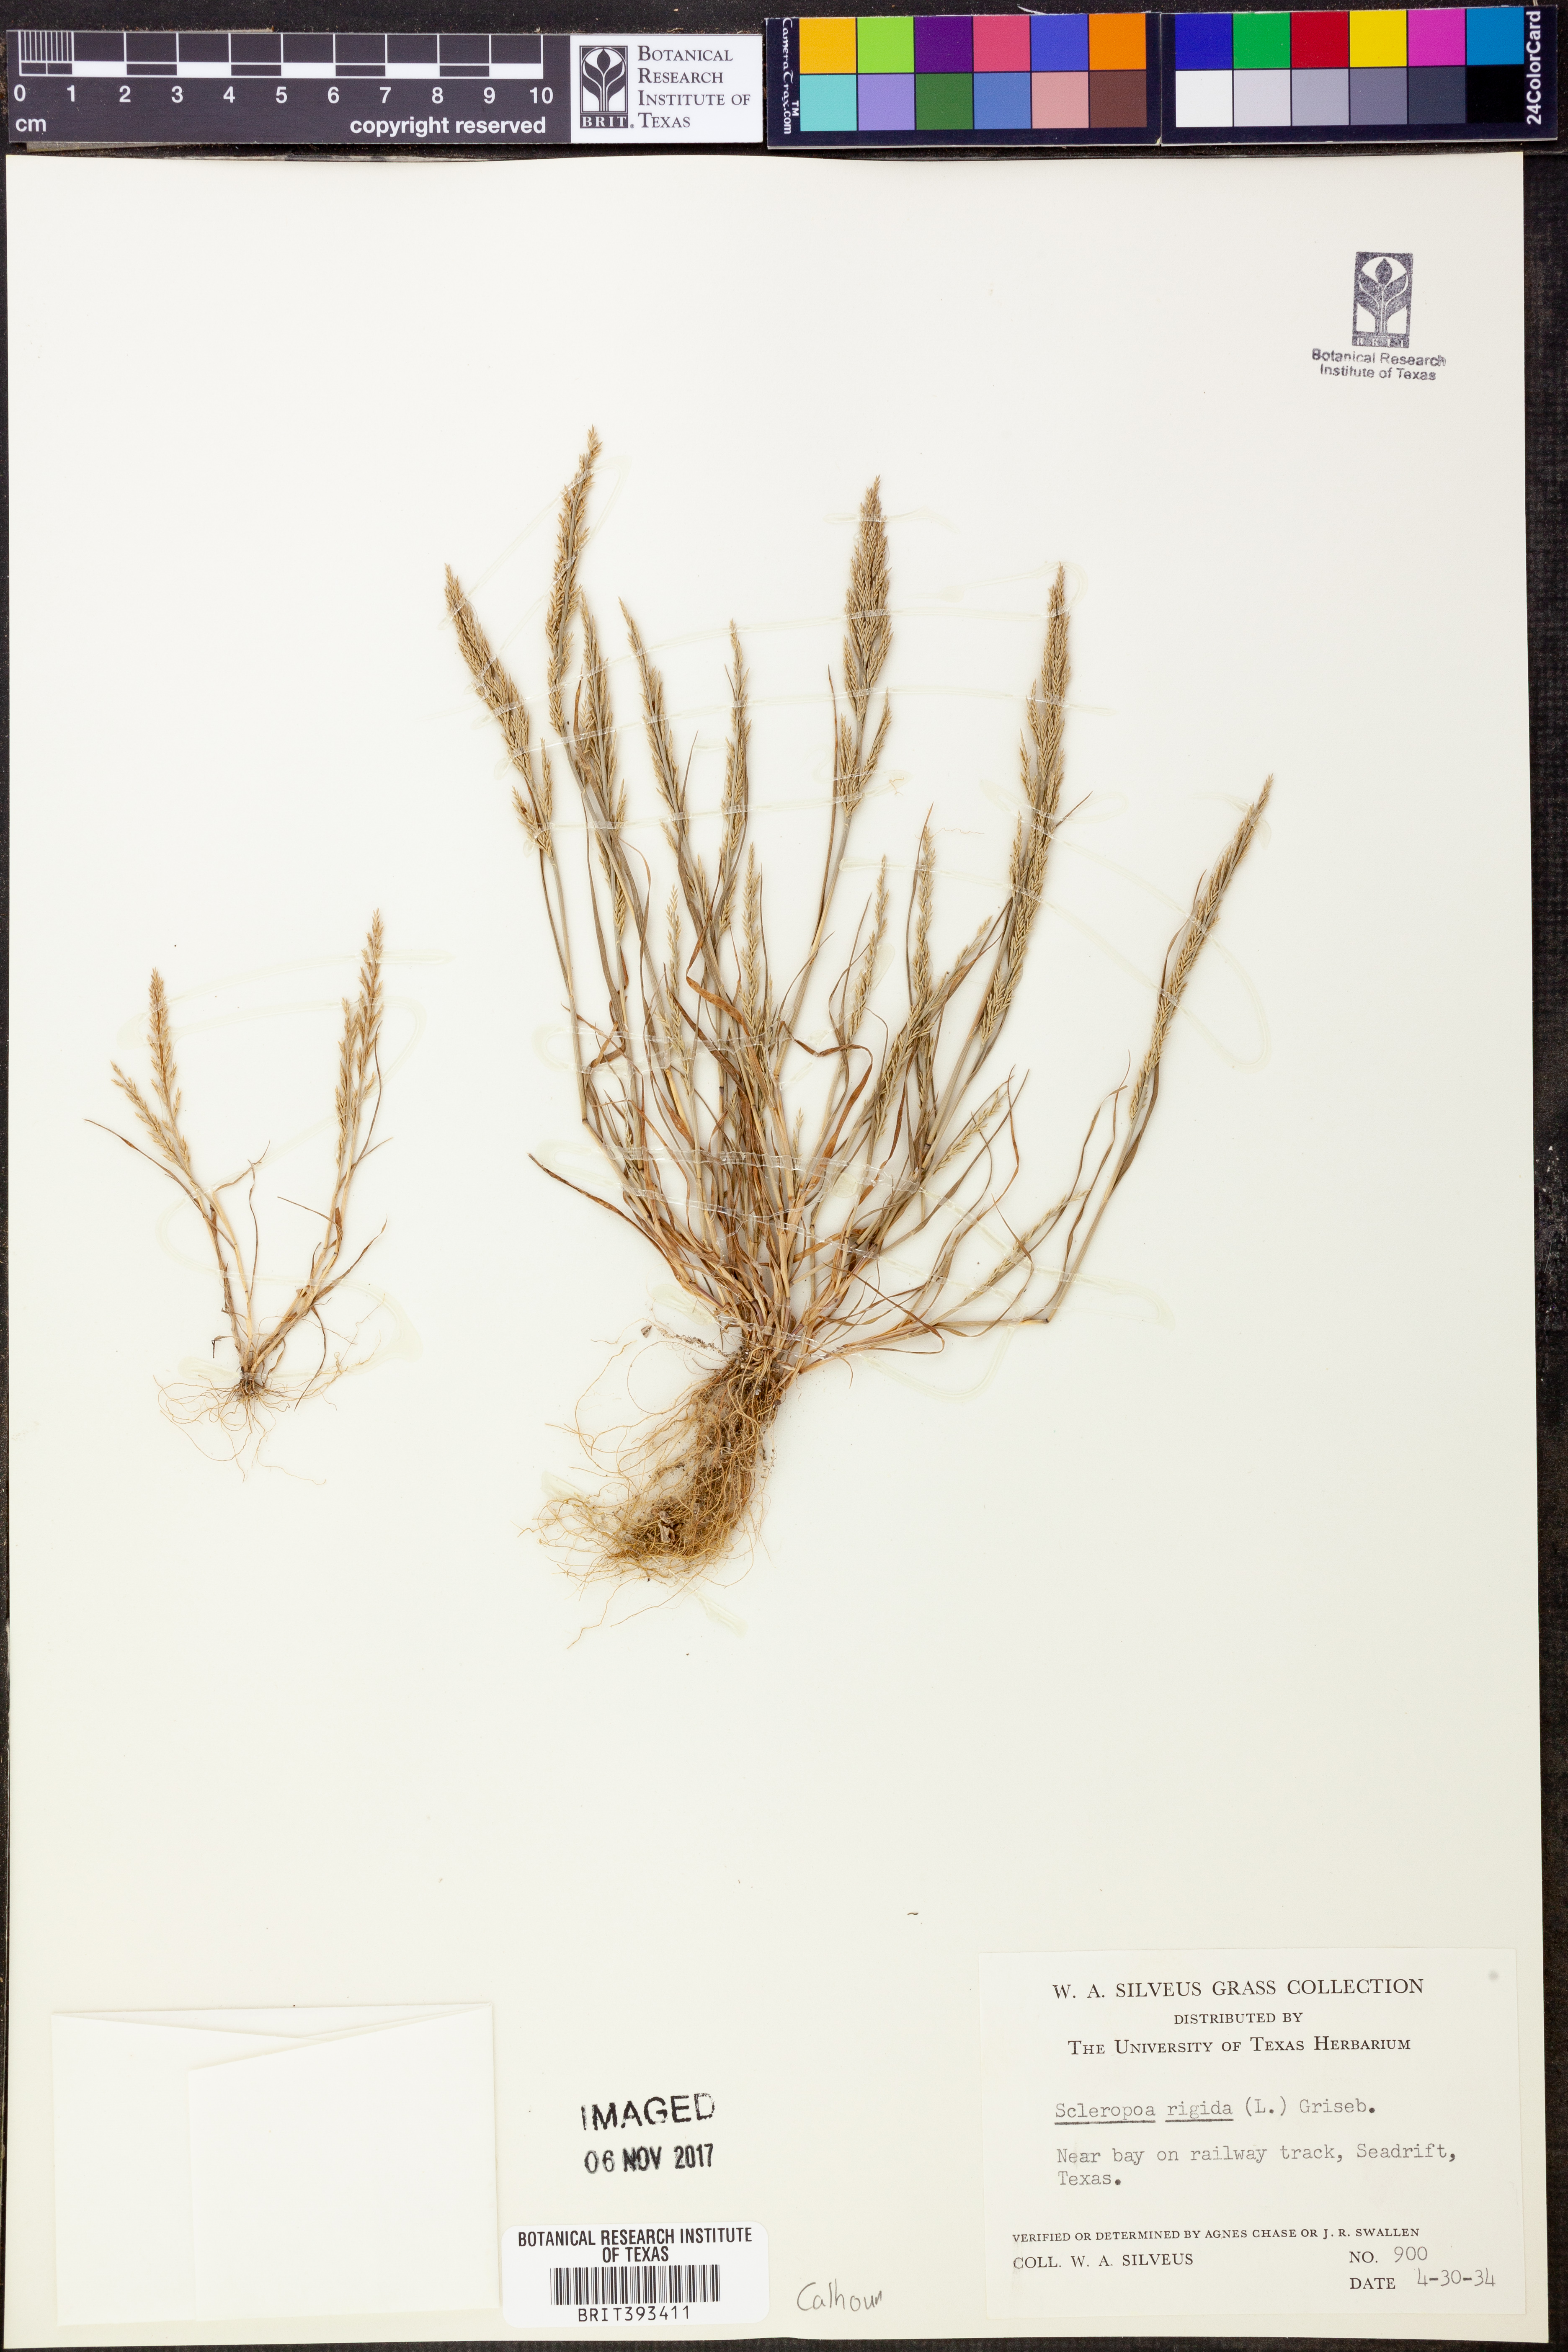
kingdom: Plantae
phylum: Tracheophyta
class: Liliopsida
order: Poales
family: Poaceae
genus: Catapodium
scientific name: Catapodium rigidum
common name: Fern-grass
